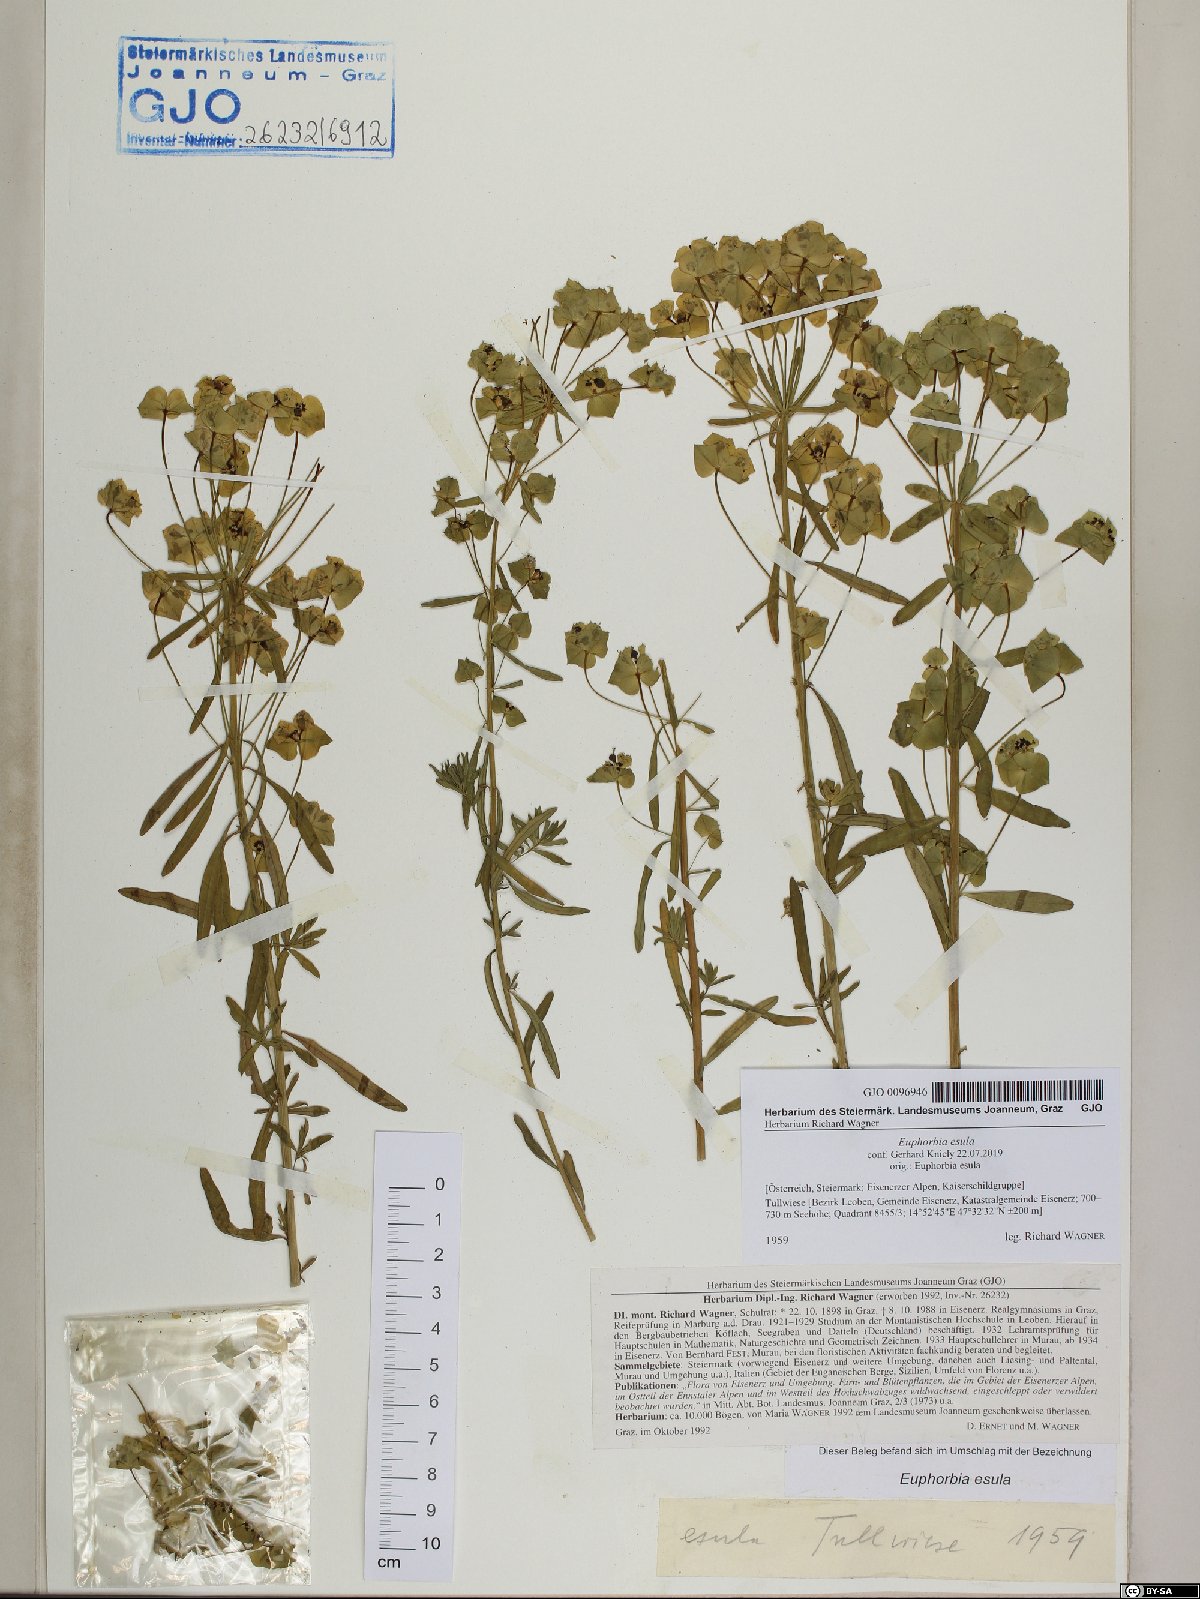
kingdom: Plantae
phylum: Tracheophyta
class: Magnoliopsida
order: Malpighiales
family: Euphorbiaceae
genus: Euphorbia
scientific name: Euphorbia esula
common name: Leafy spurge
